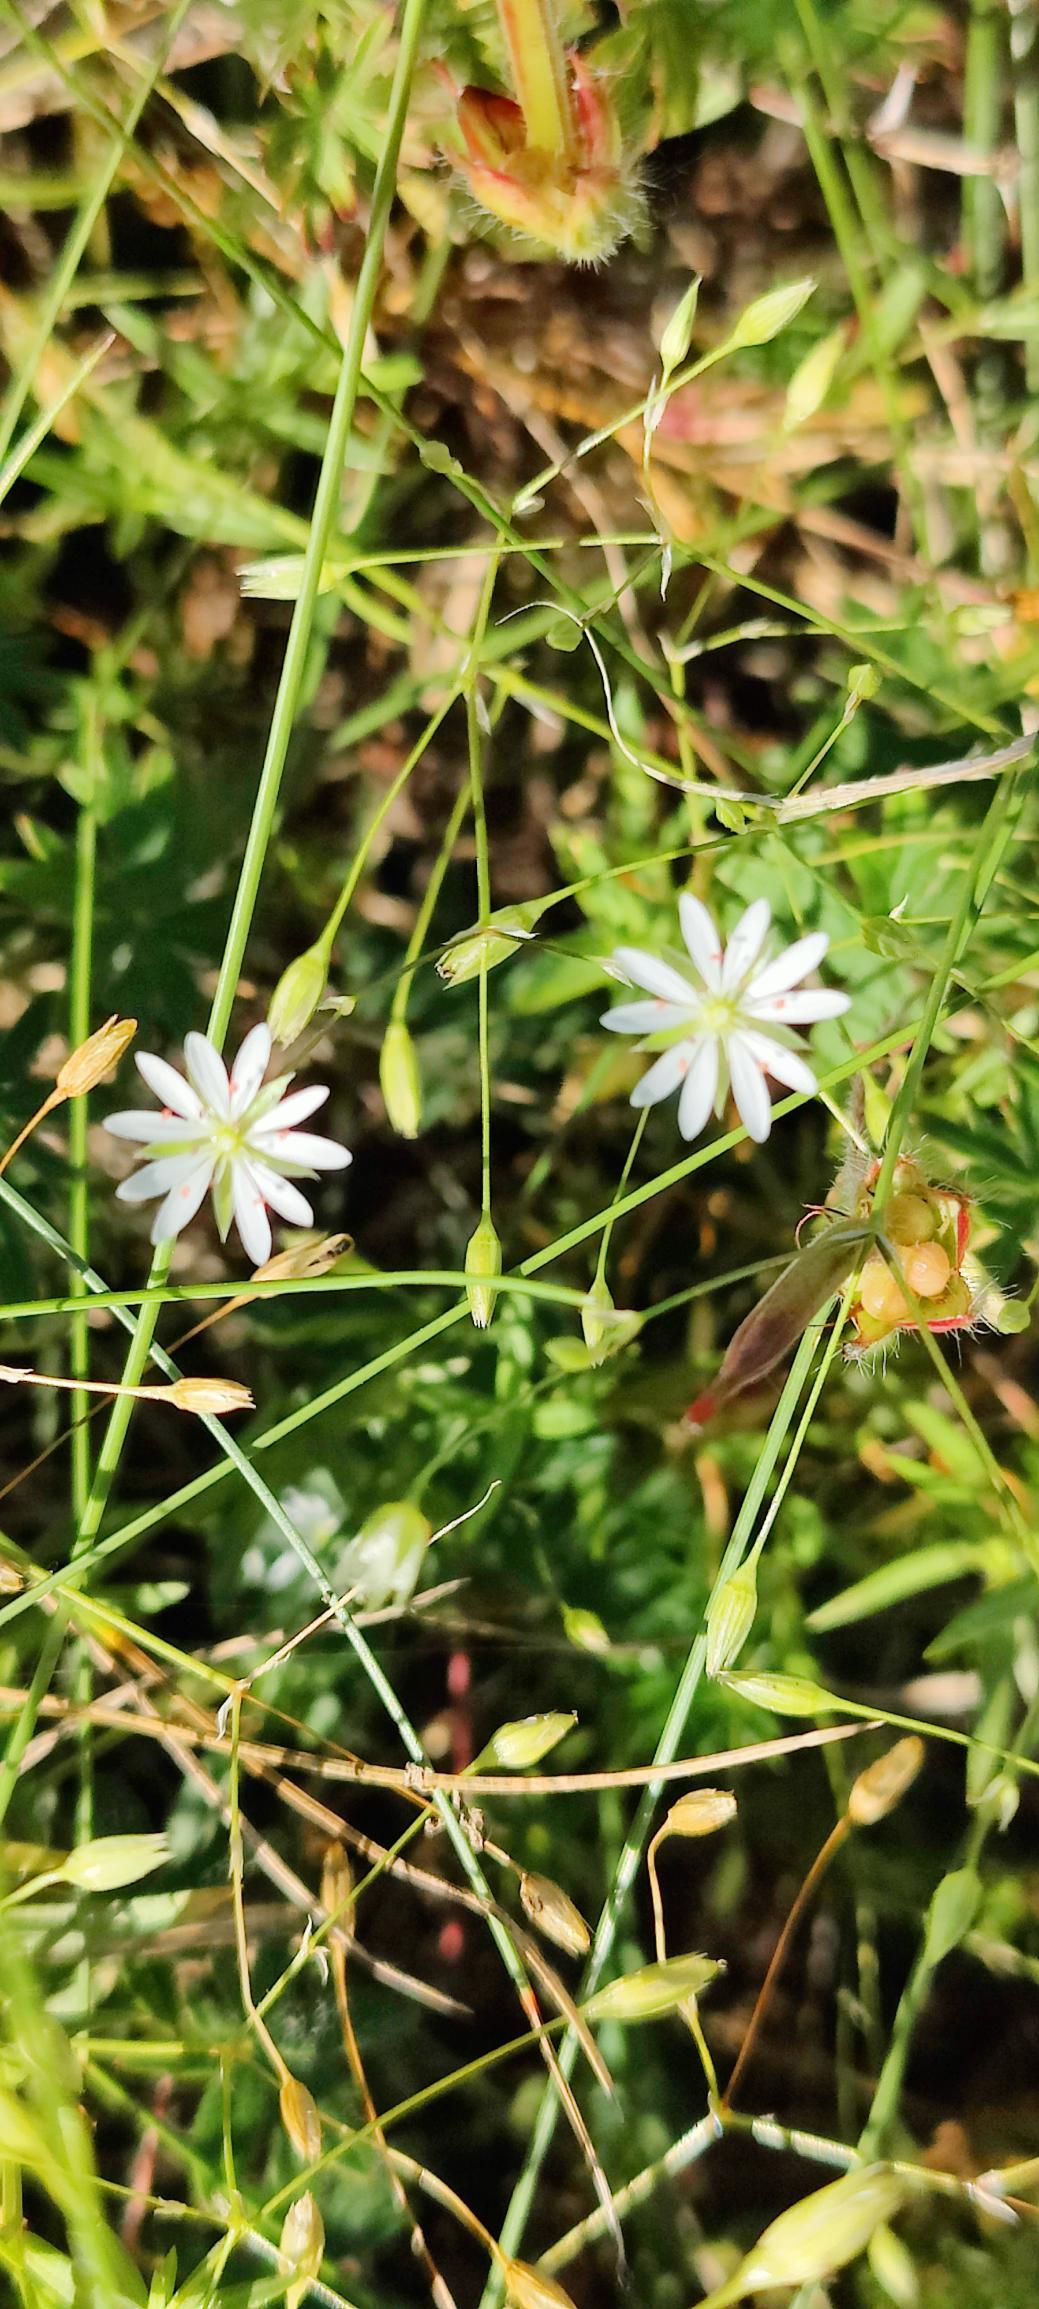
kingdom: Plantae
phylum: Tracheophyta
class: Magnoliopsida
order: Caryophyllales
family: Caryophyllaceae
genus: Stellaria
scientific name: Stellaria graminea
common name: Græsbladet fladstjerne
